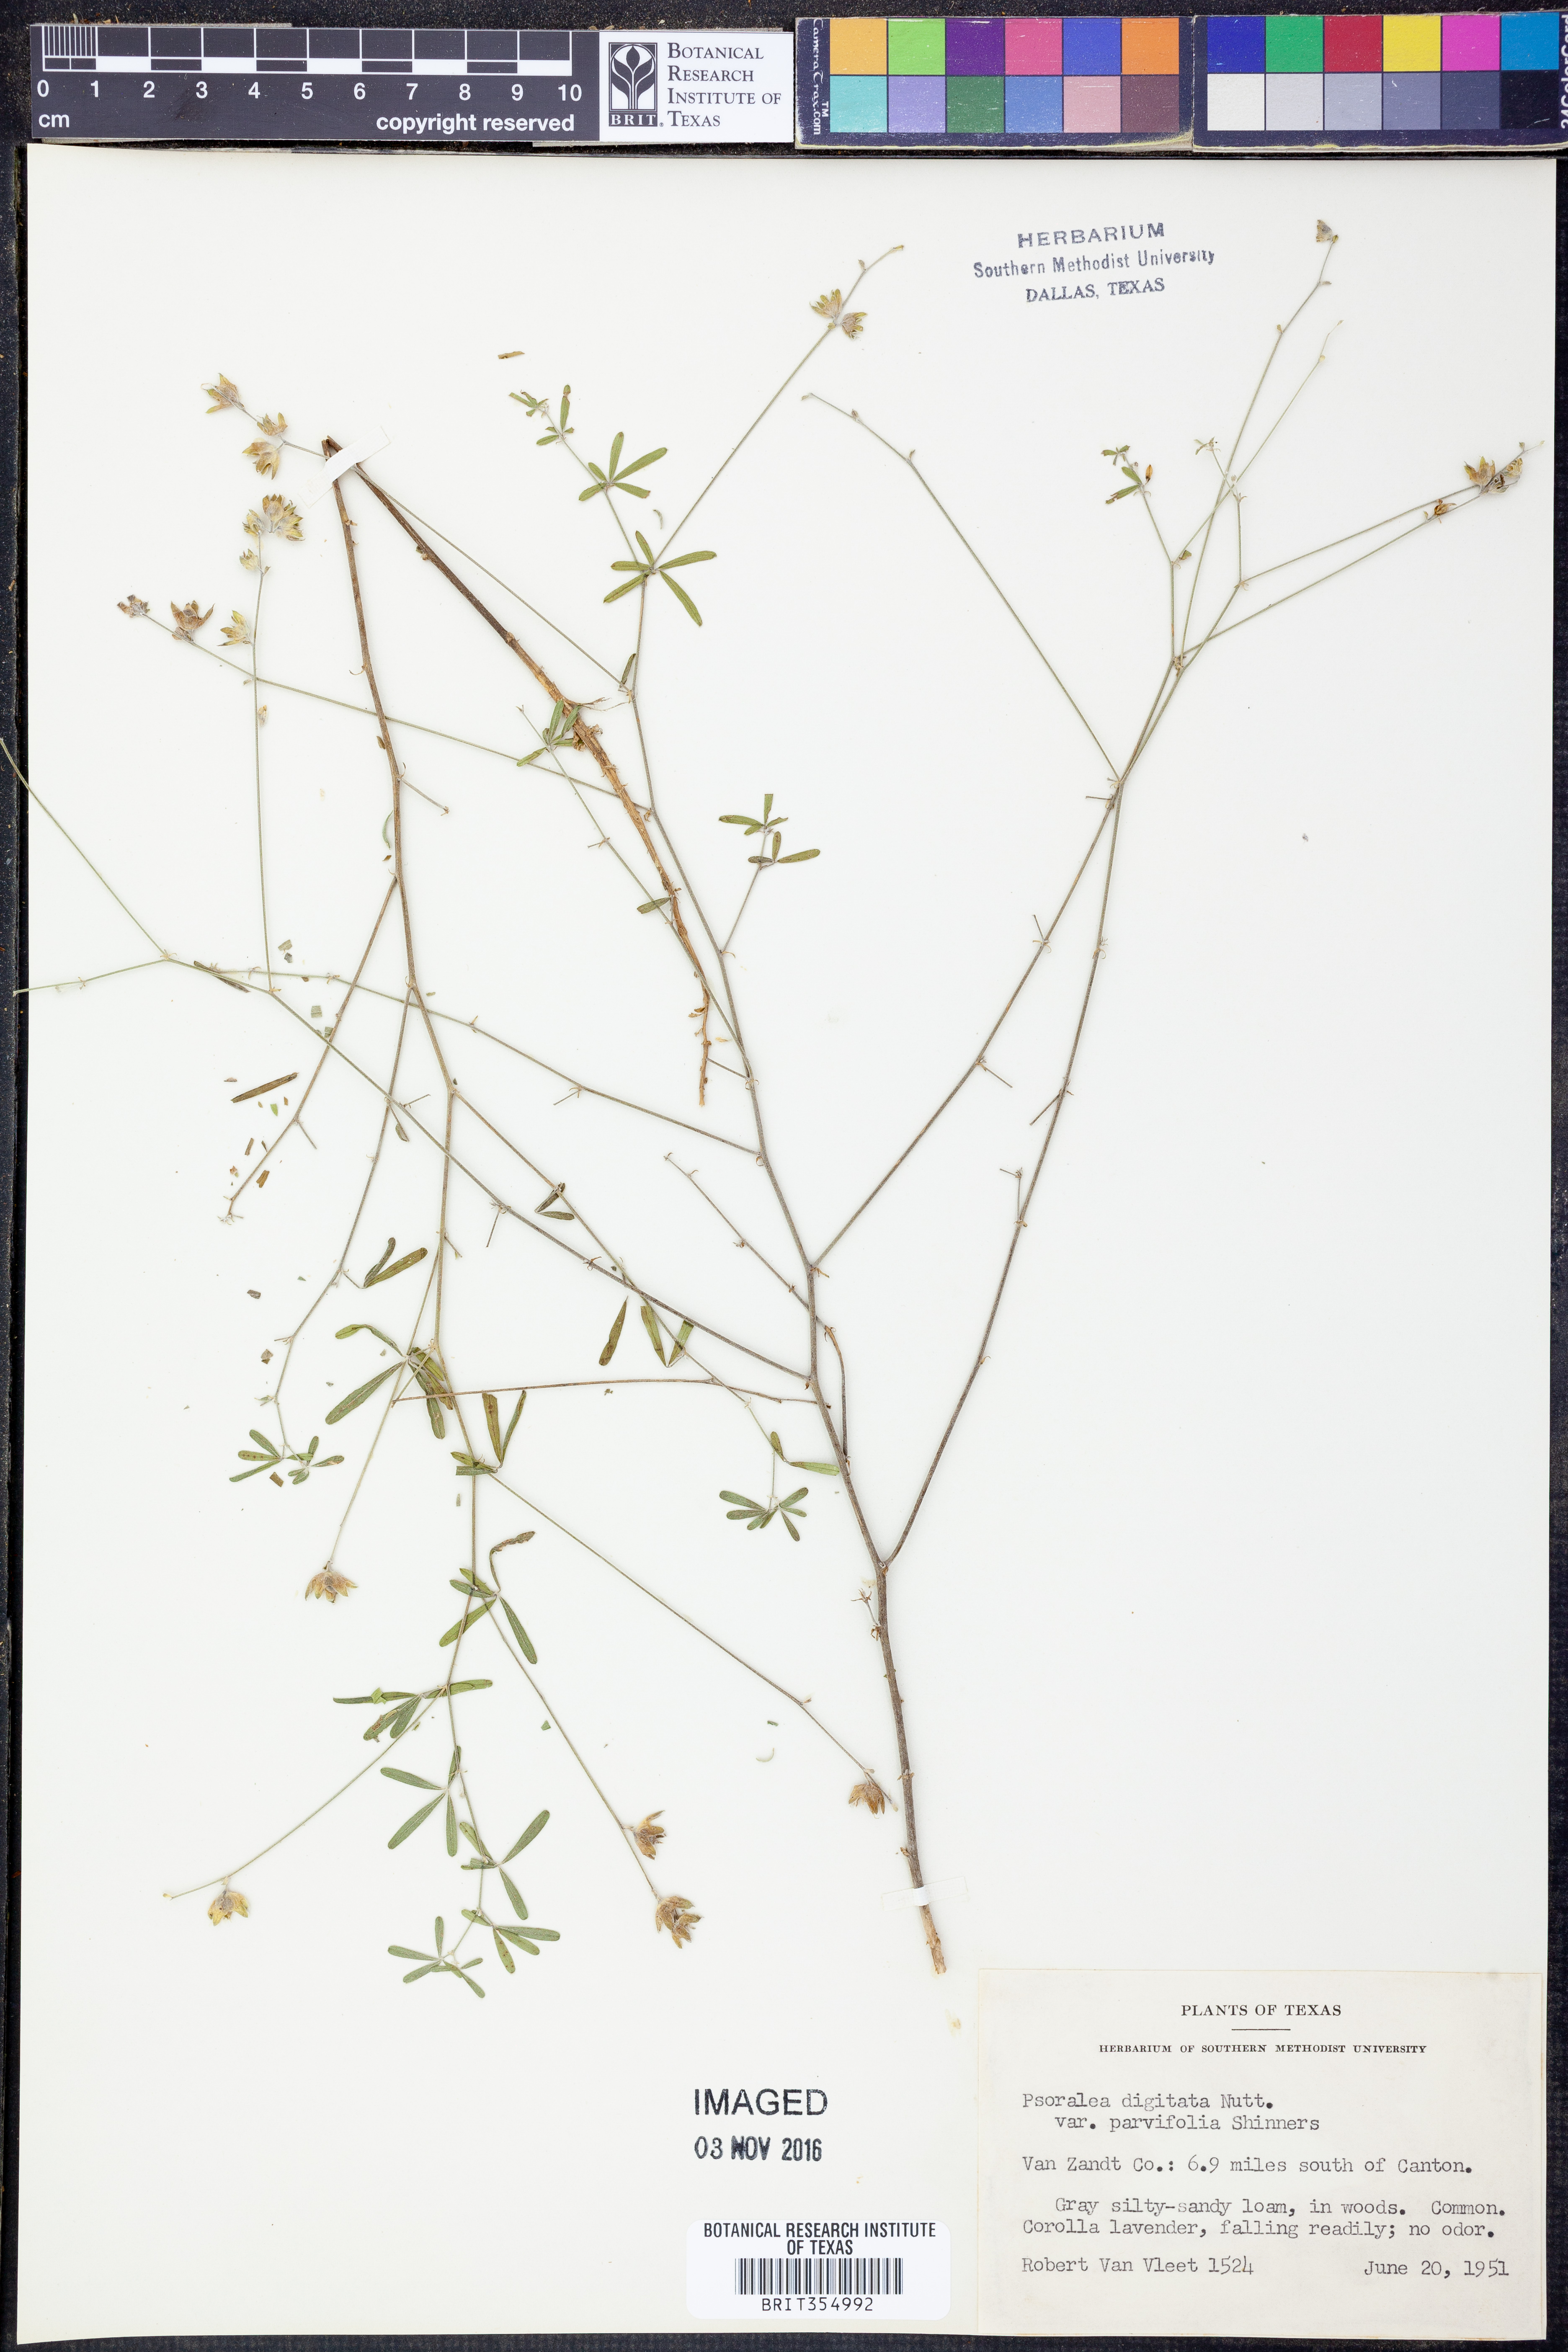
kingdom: Plantae
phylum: Tracheophyta
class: Magnoliopsida
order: Fabales
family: Fabaceae
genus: Pediomelum
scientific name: Pediomelum digitatum
